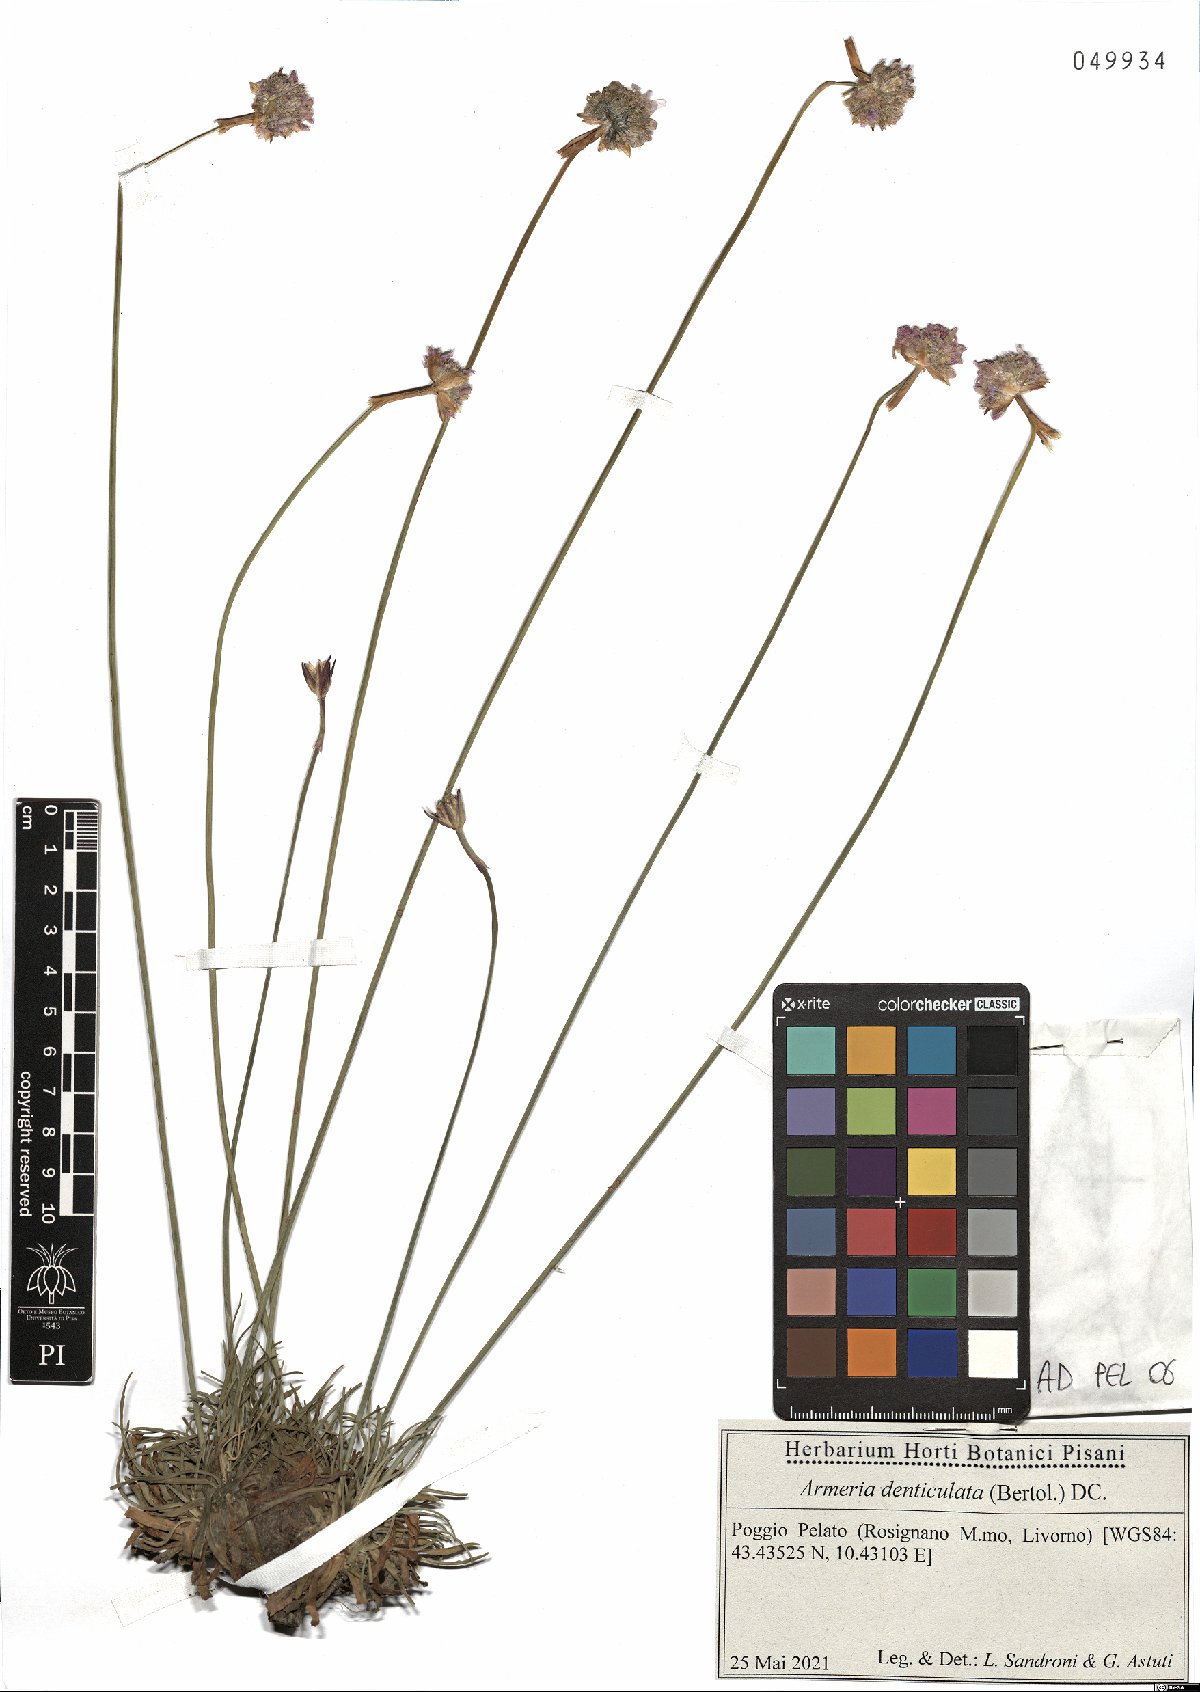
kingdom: Plantae
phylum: Tracheophyta
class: Magnoliopsida
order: Caryophyllales
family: Plumbaginaceae
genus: Armeria
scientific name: Armeria denticulata
